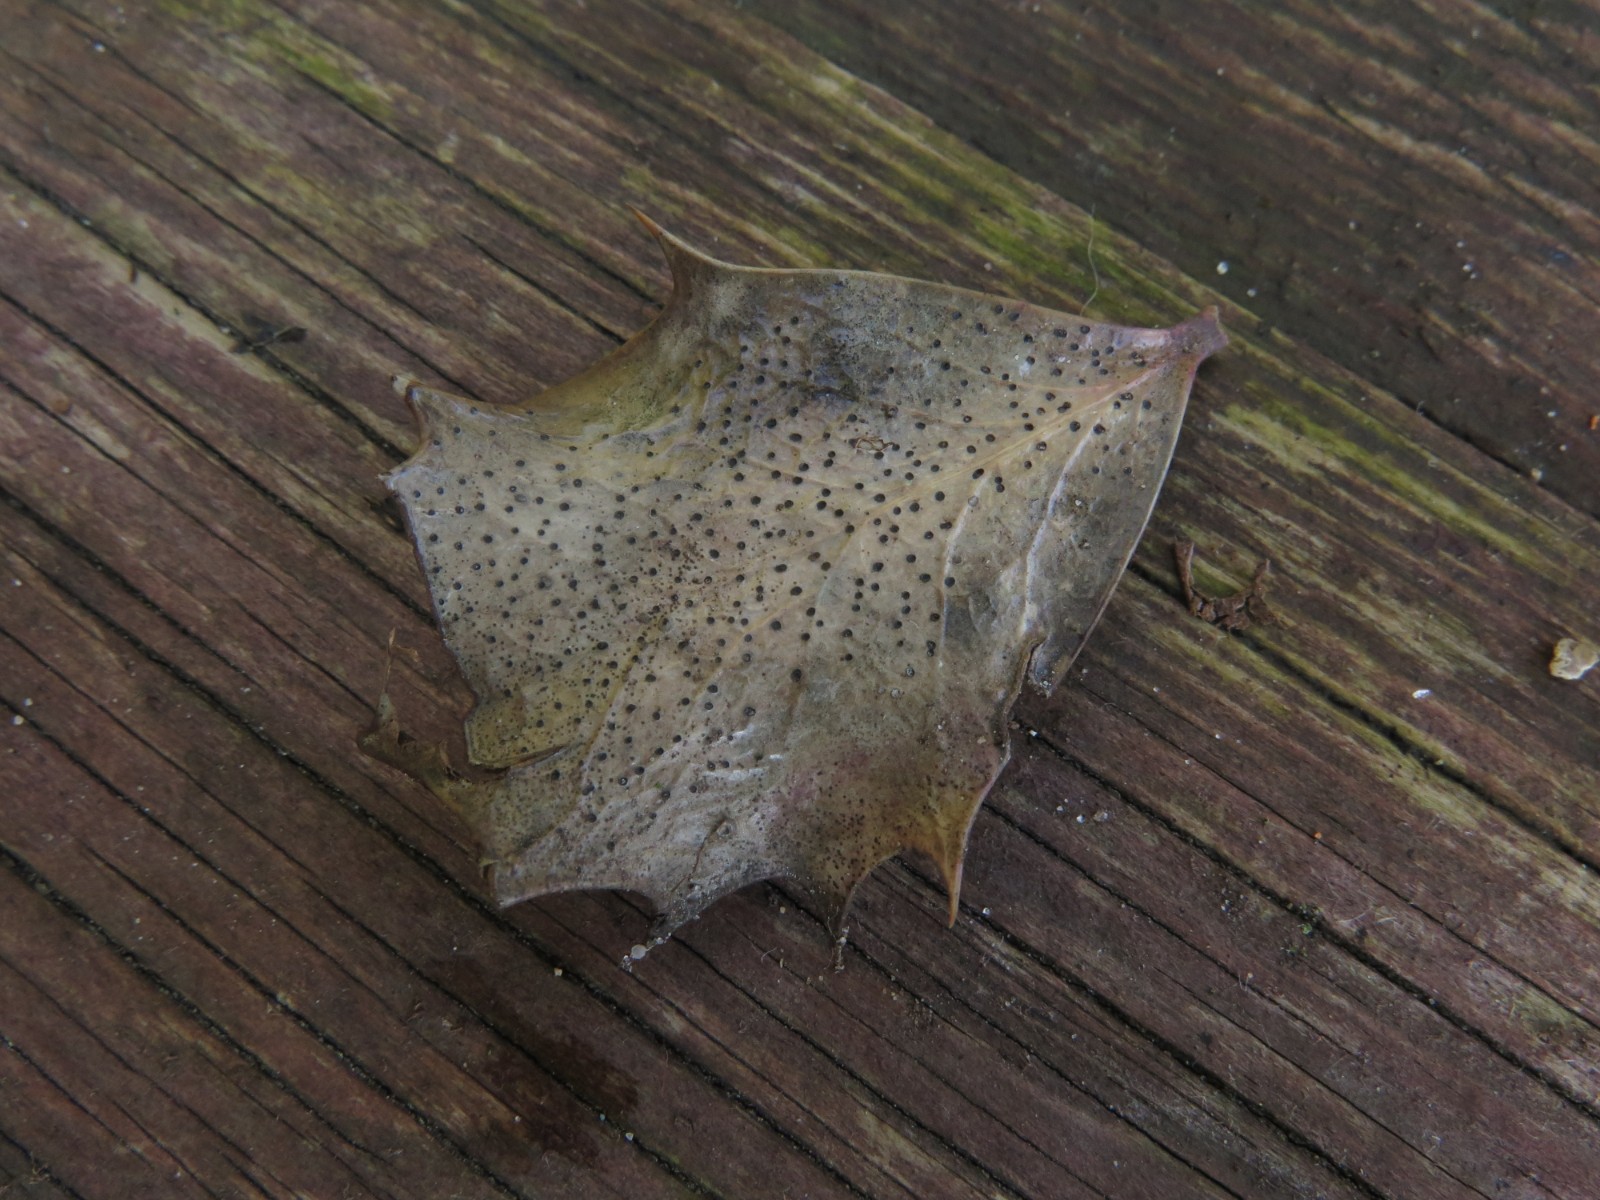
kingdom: Fungi
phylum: Ascomycota
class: Leotiomycetes
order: Helotiales
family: Cenangiaceae
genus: Trochila
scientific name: Trochila ilicina
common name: kristtorn-lågskive
